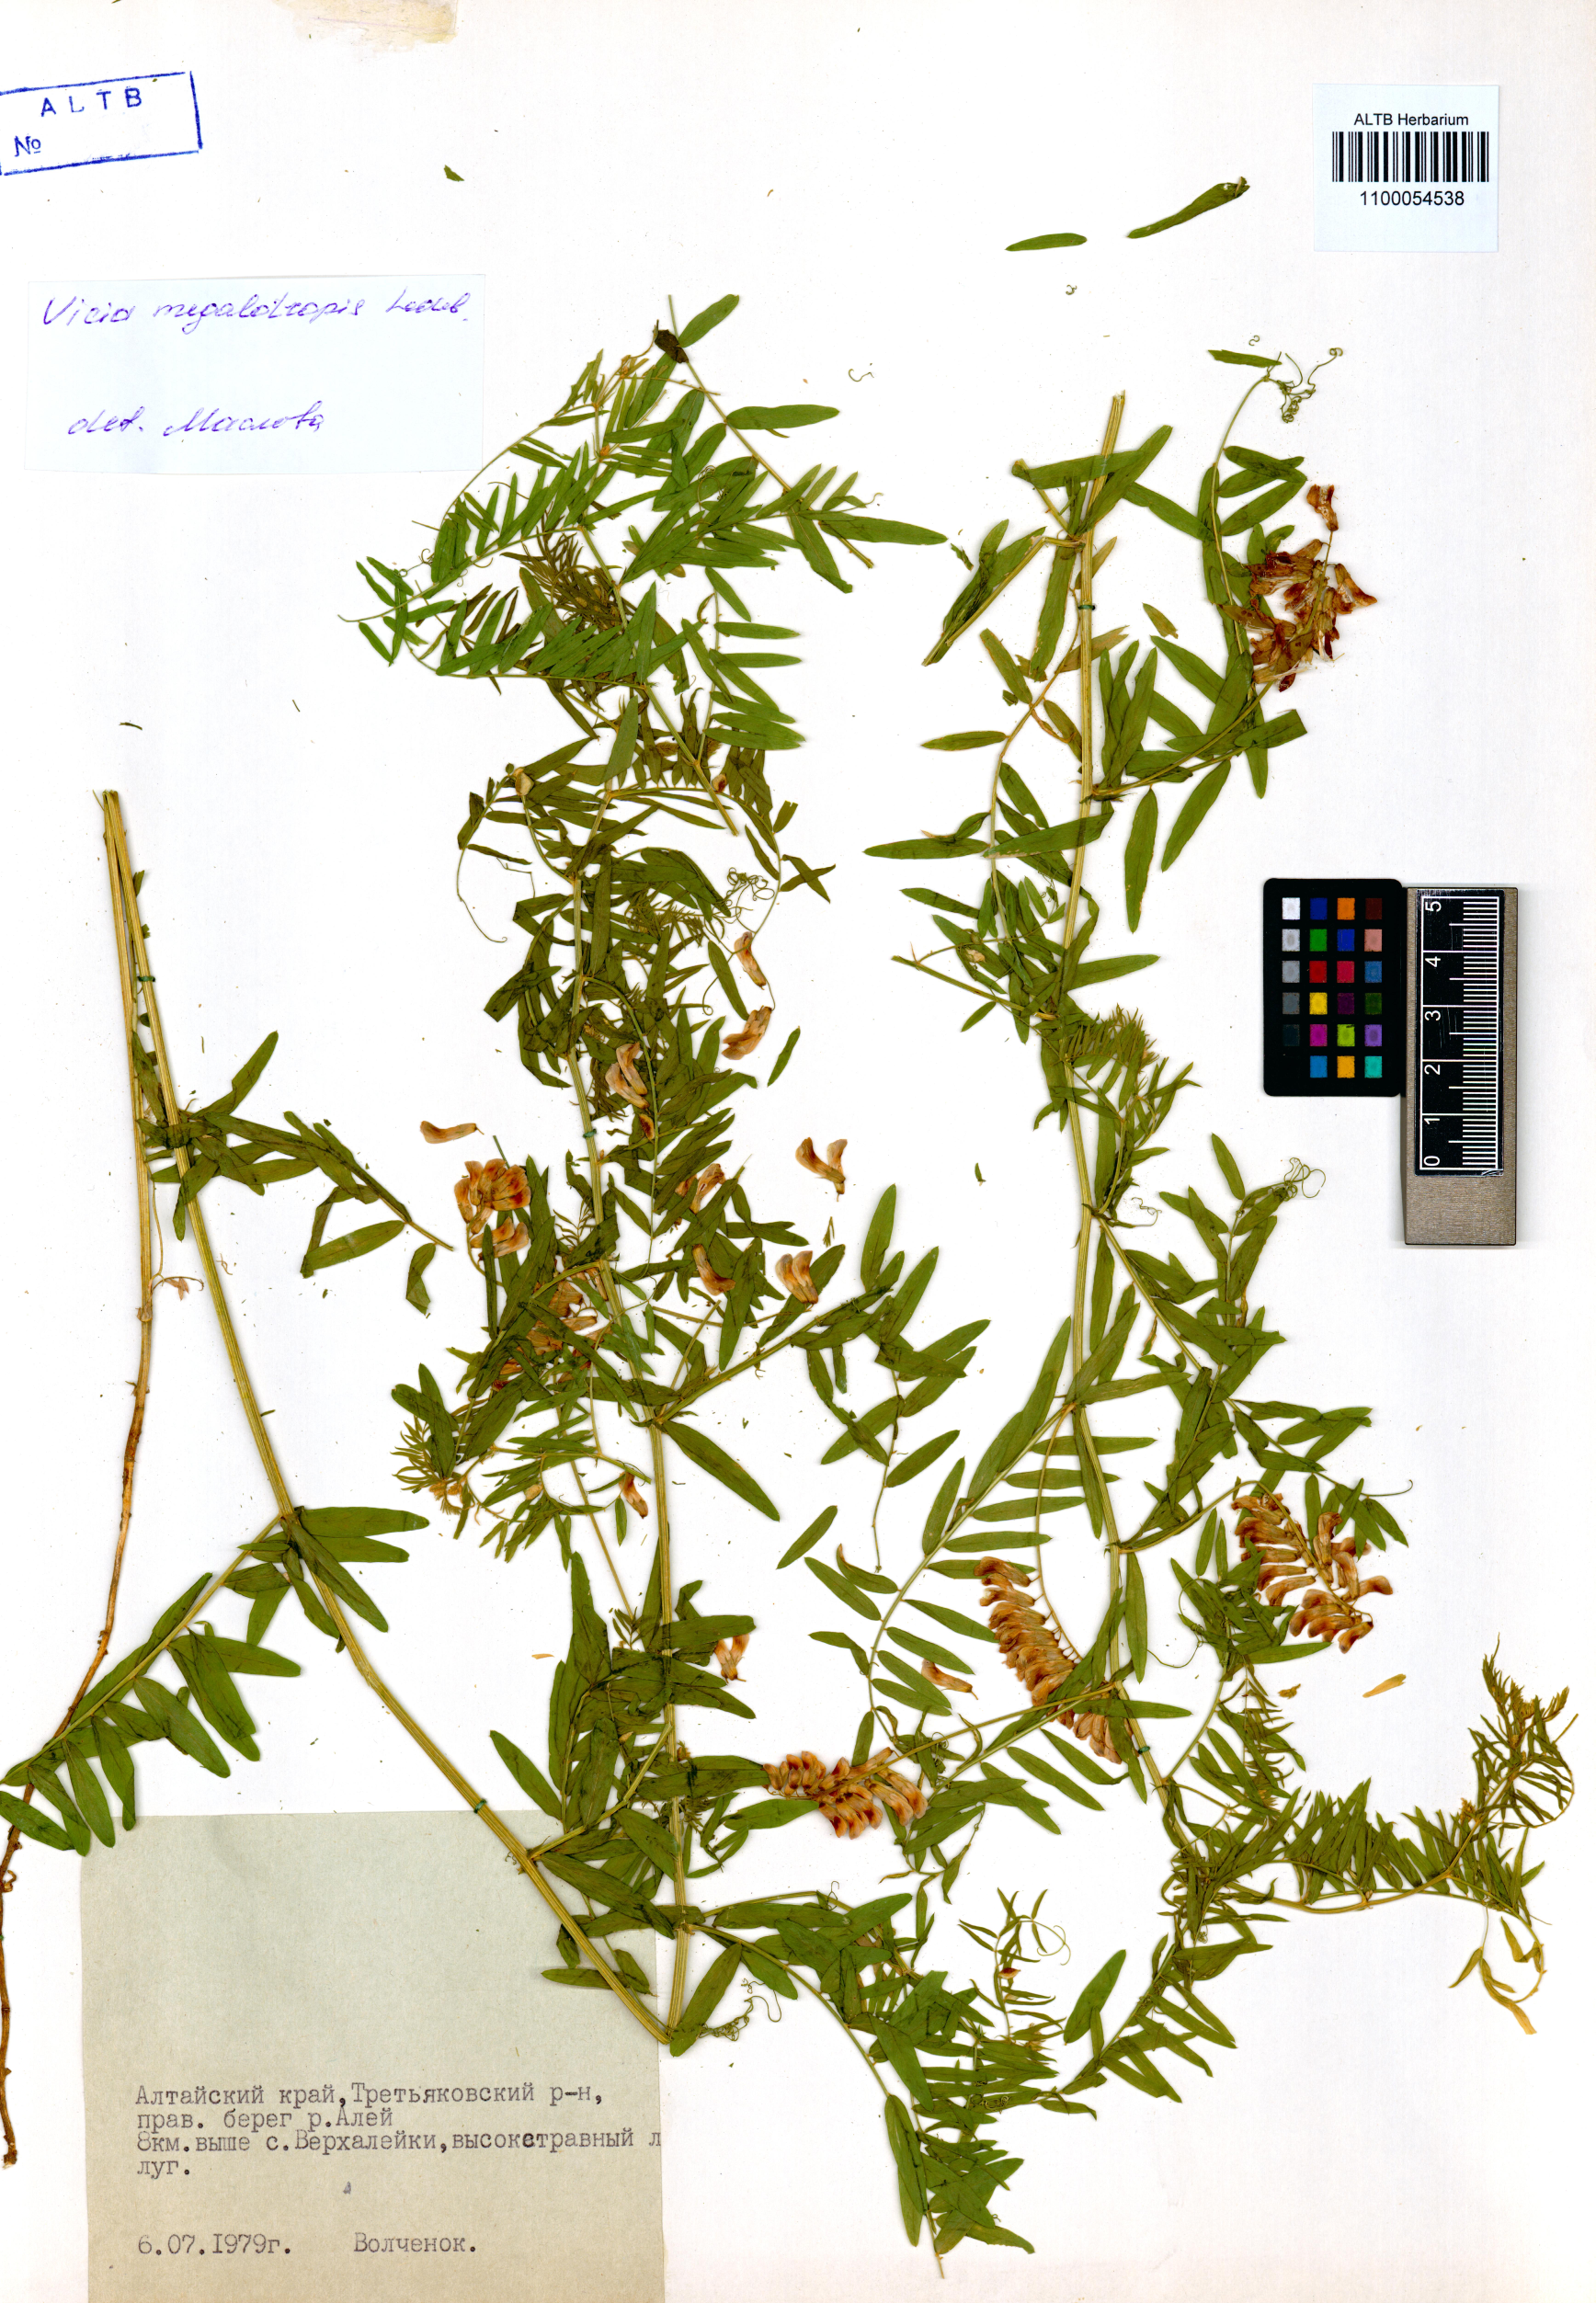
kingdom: Plantae
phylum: Tracheophyta
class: Magnoliopsida
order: Fabales
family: Fabaceae
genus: Vicia
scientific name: Vicia megalotropis
